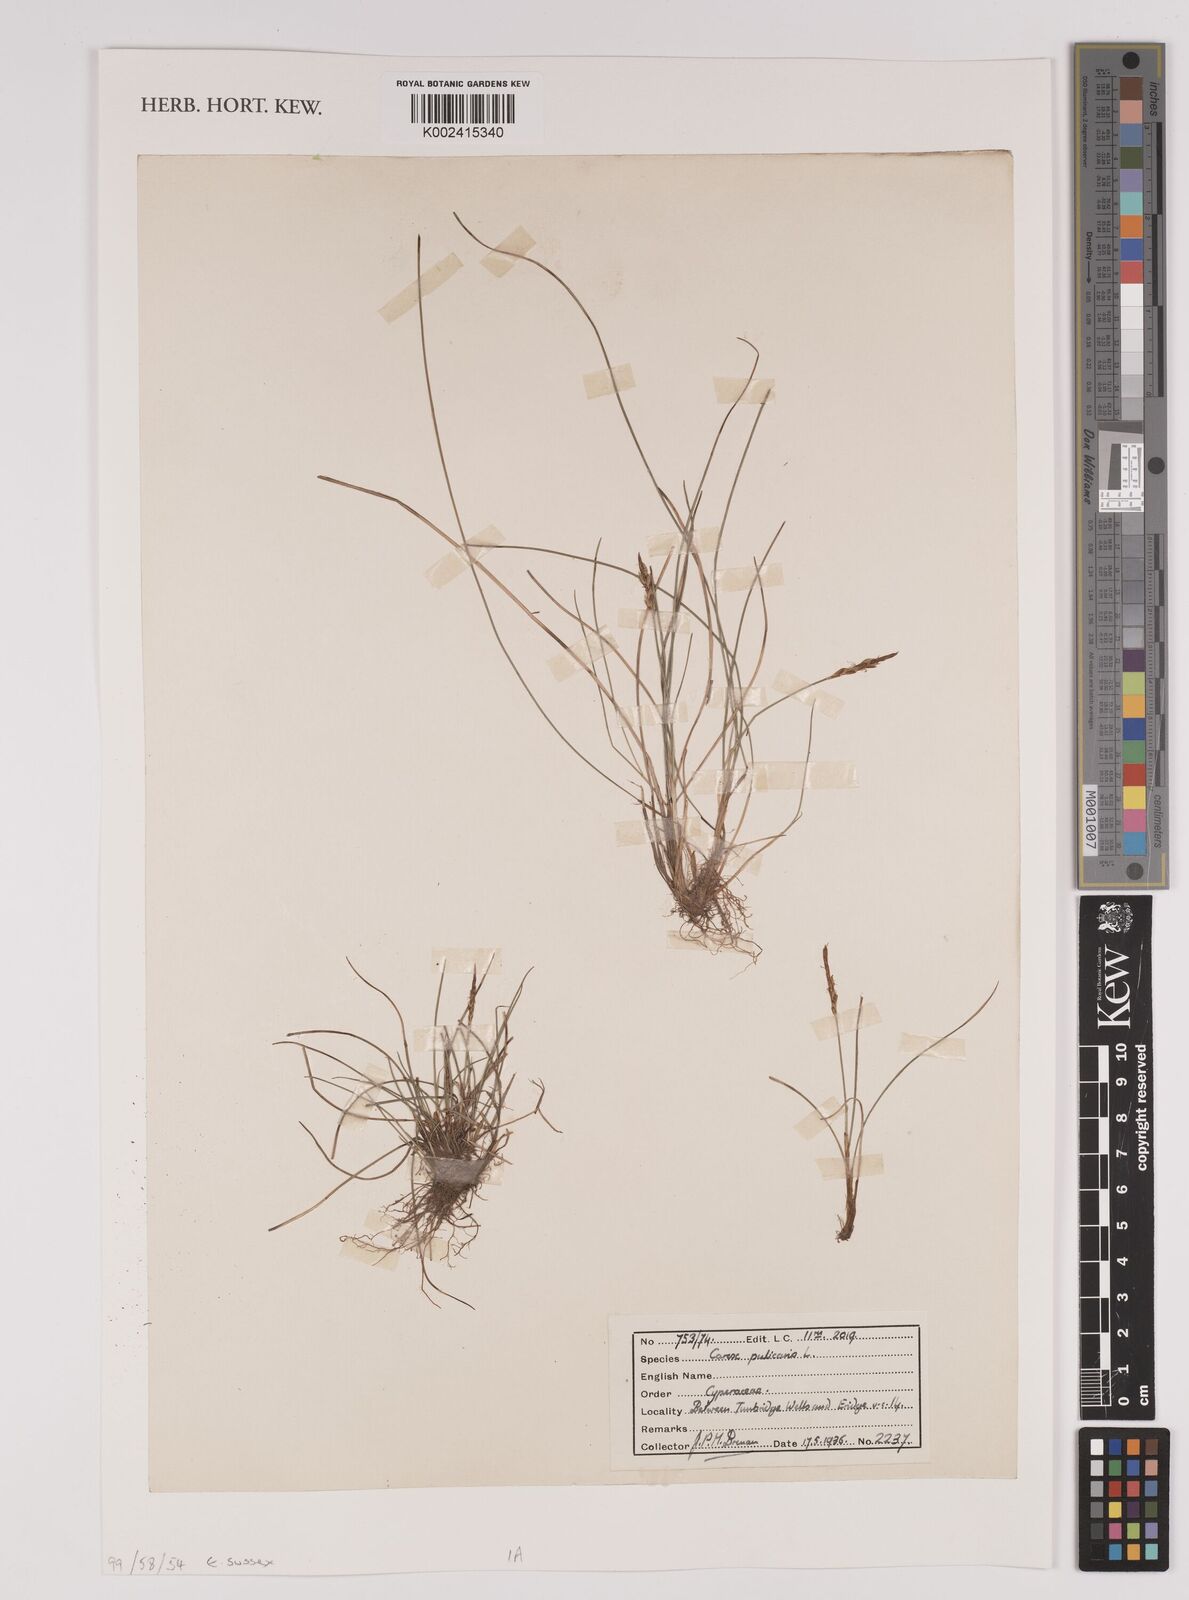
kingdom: Plantae
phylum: Tracheophyta
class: Liliopsida
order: Poales
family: Cyperaceae
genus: Carex
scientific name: Carex pulicaris
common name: Flea sedge
